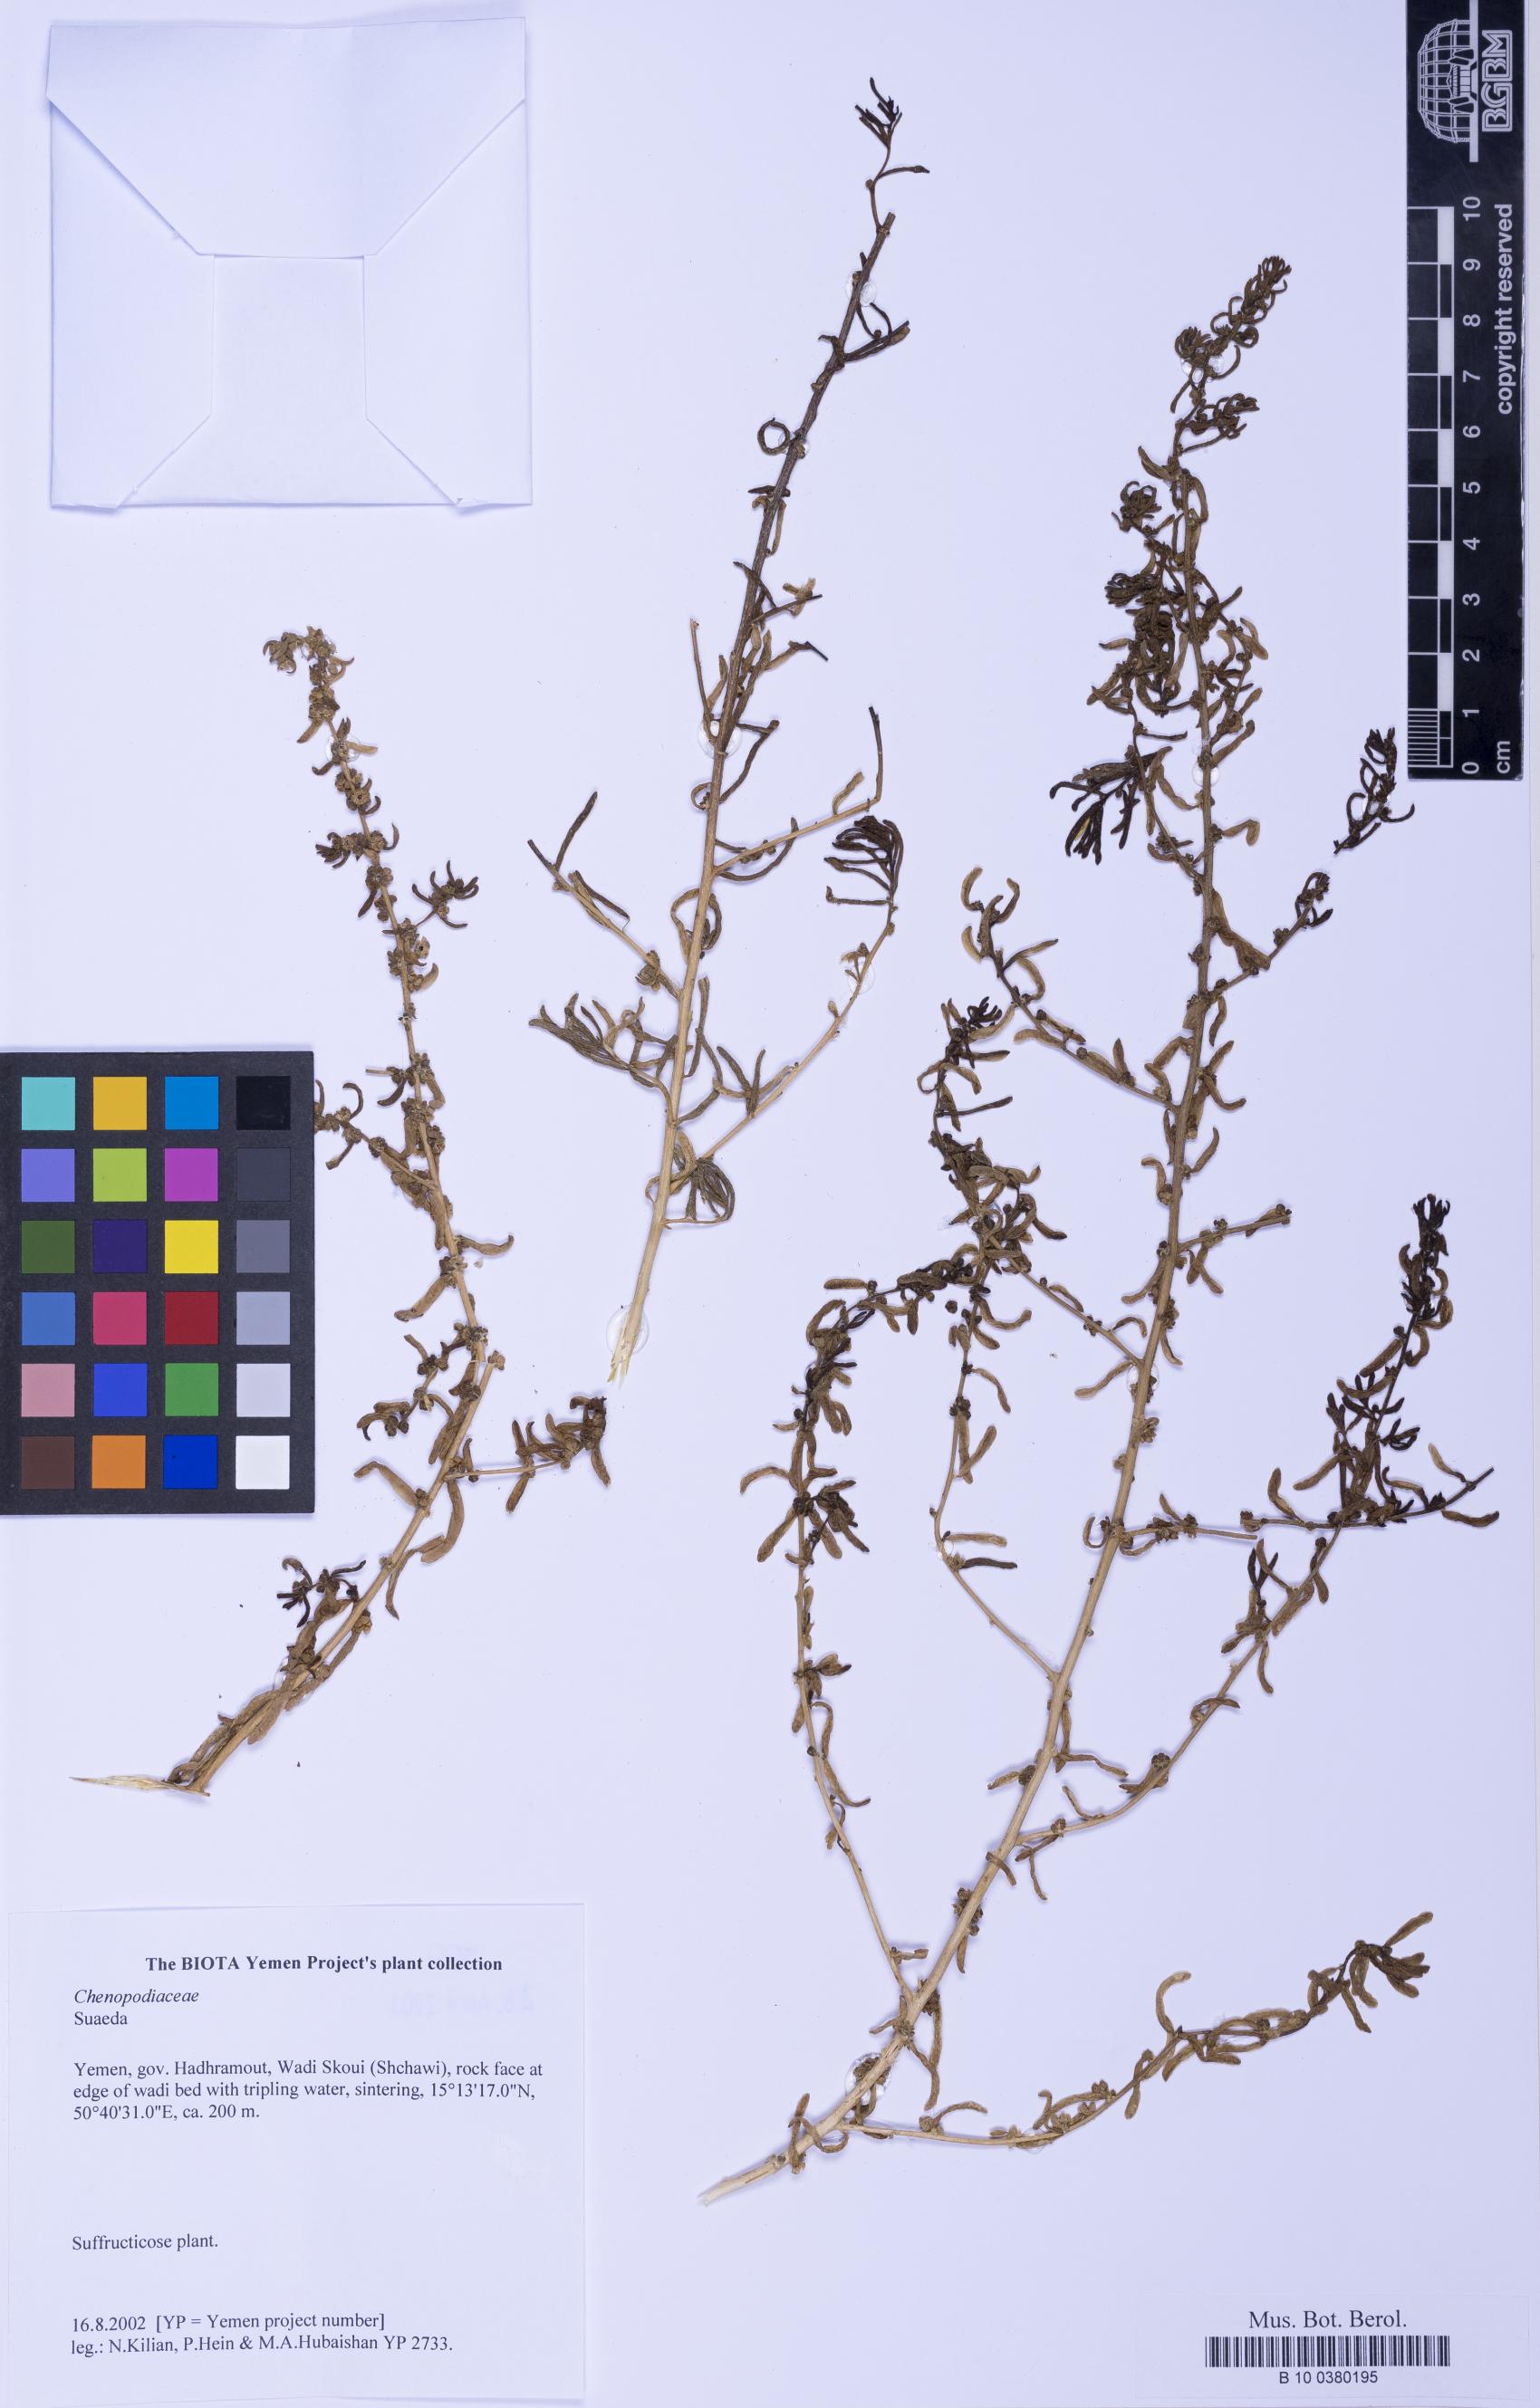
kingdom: Plantae
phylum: Tracheophyta
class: Magnoliopsida
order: Caryophyllales
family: Amaranthaceae
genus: Suaeda
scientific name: Suaeda
